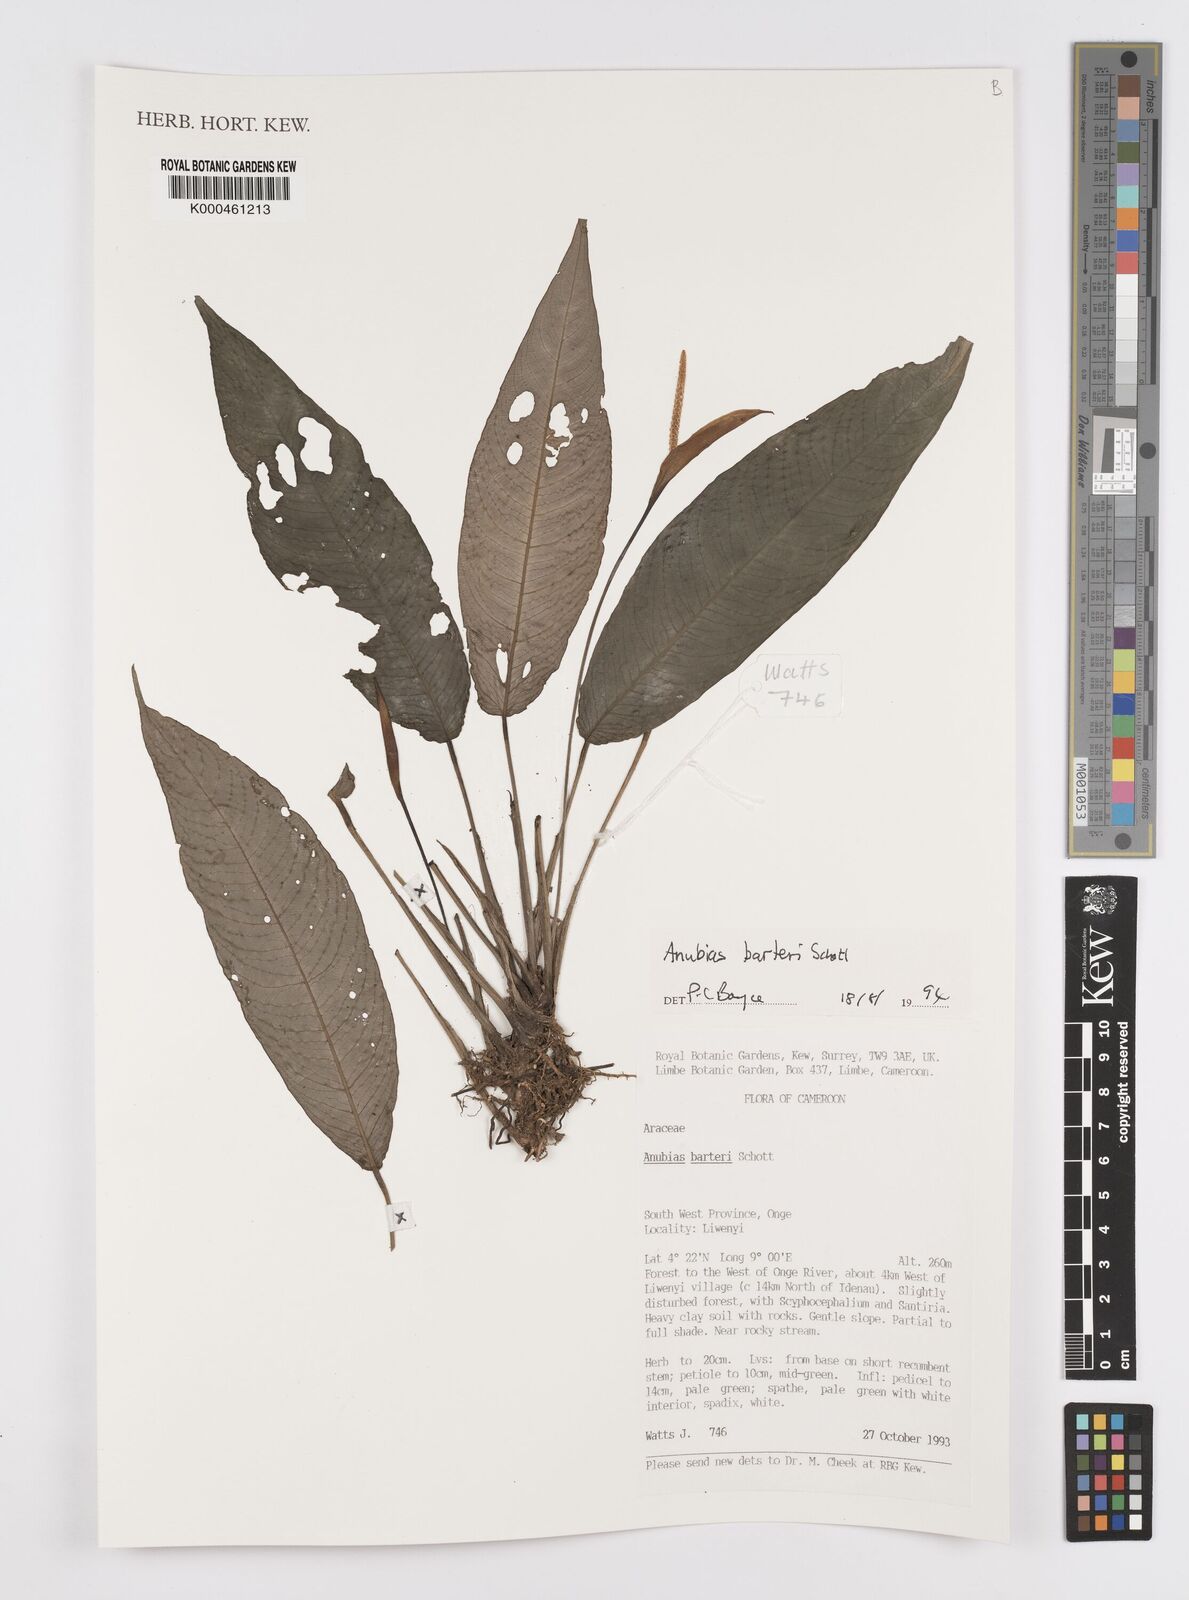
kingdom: Plantae
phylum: Tracheophyta
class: Liliopsida
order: Alismatales
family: Araceae
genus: Anubias
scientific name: Anubias barteri
